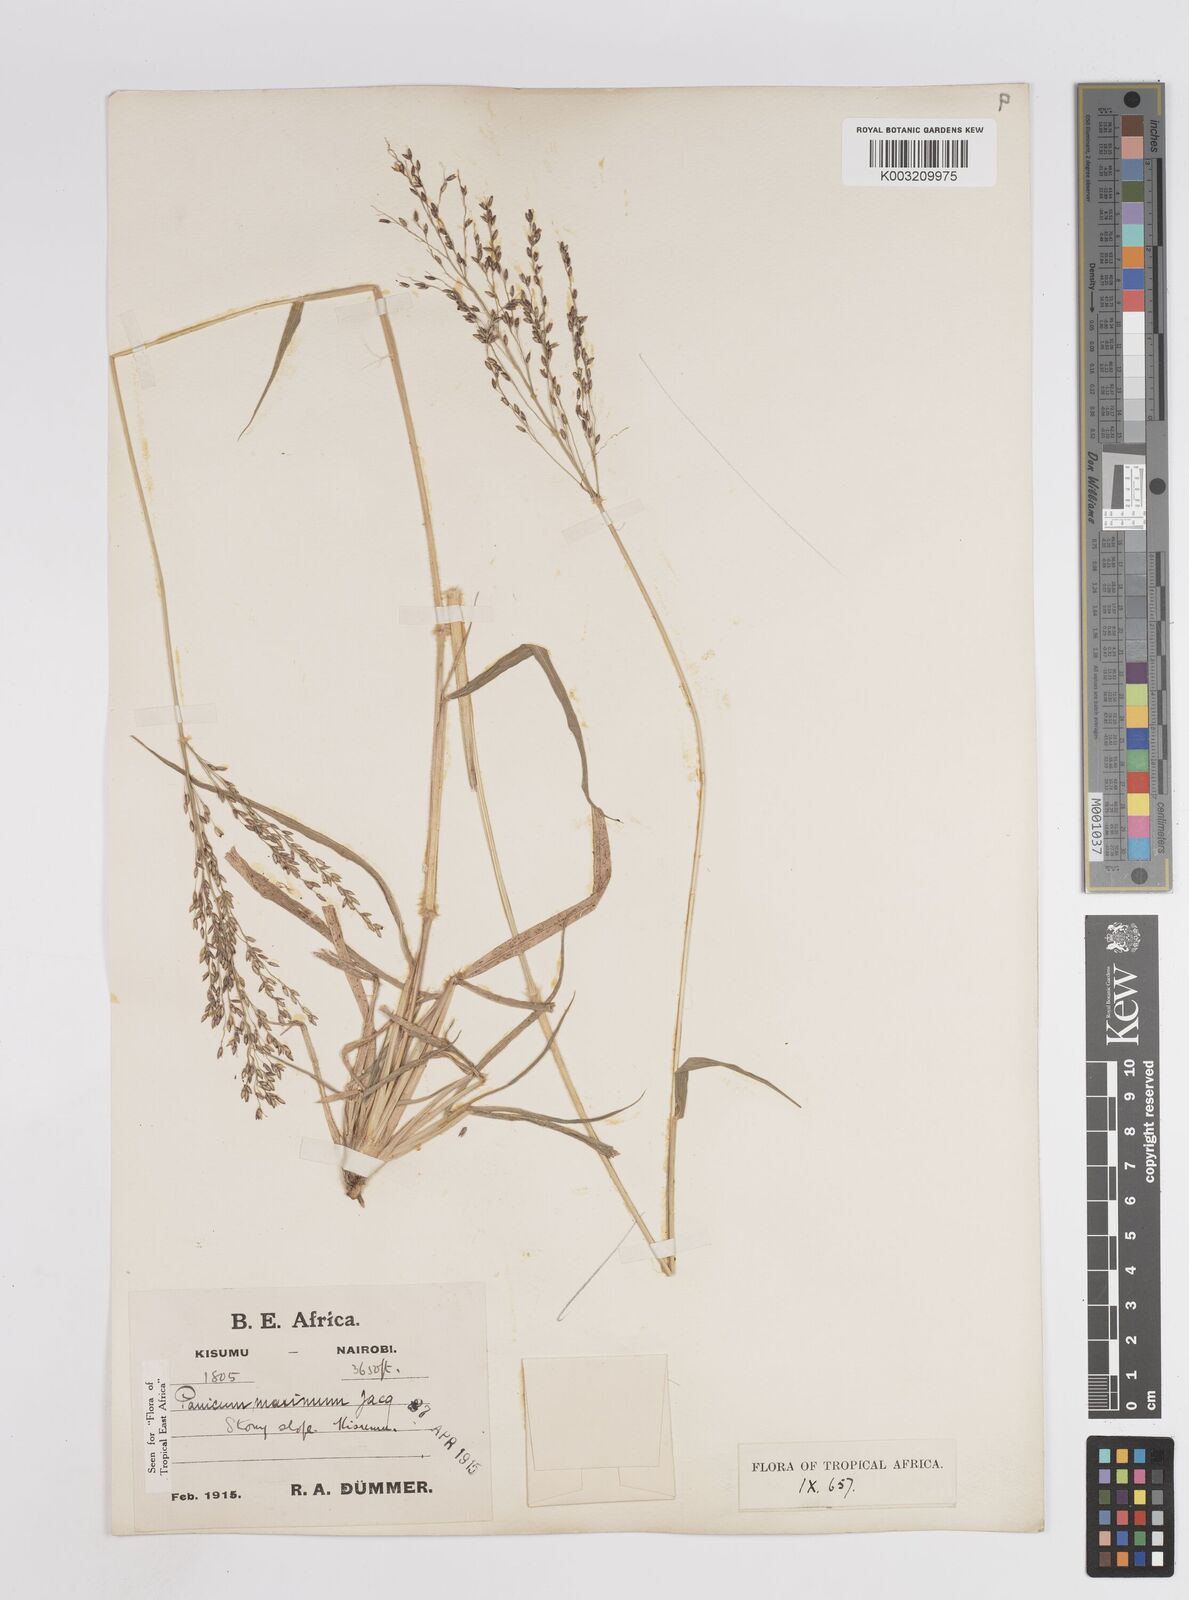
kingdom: Plantae
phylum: Tracheophyta
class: Liliopsida
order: Poales
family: Poaceae
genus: Megathyrsus
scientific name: Megathyrsus maximus
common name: Guineagrass
